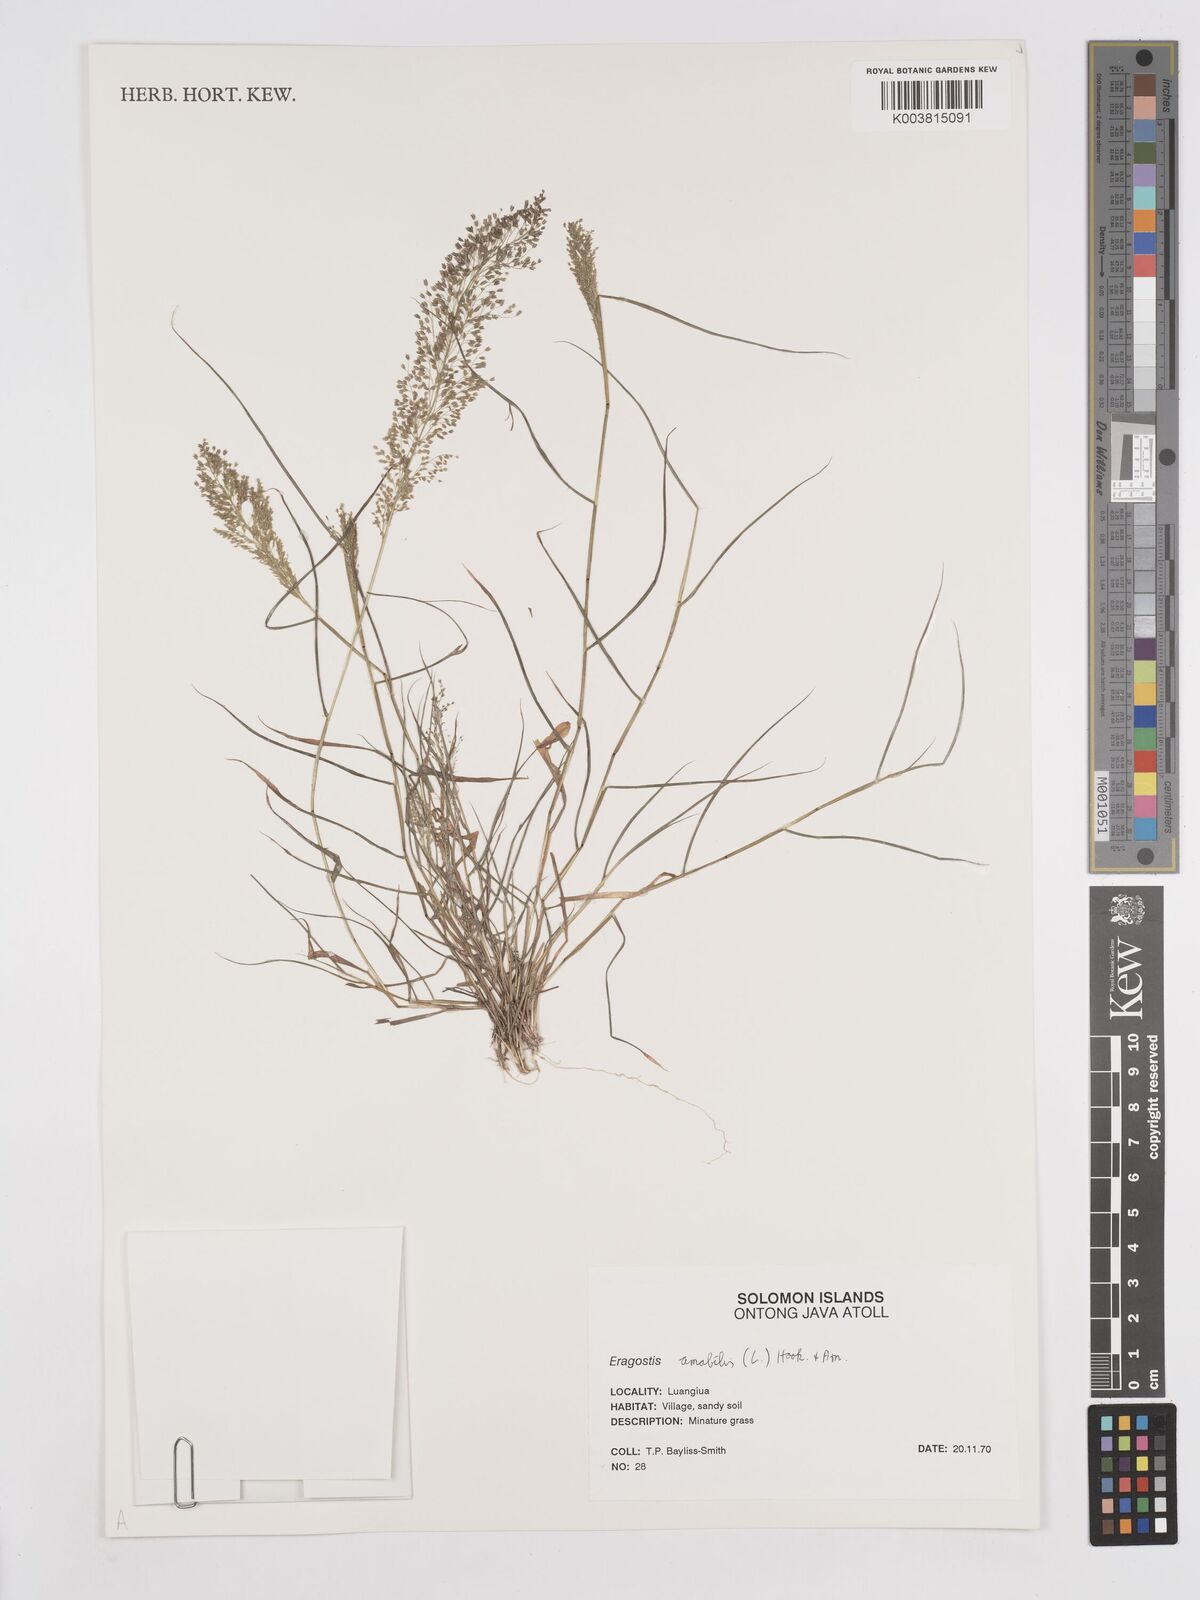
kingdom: Plantae
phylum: Tracheophyta
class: Liliopsida
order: Poales
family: Poaceae
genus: Eragrostis
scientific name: Eragrostis tenella
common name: Japanese lovegrass
